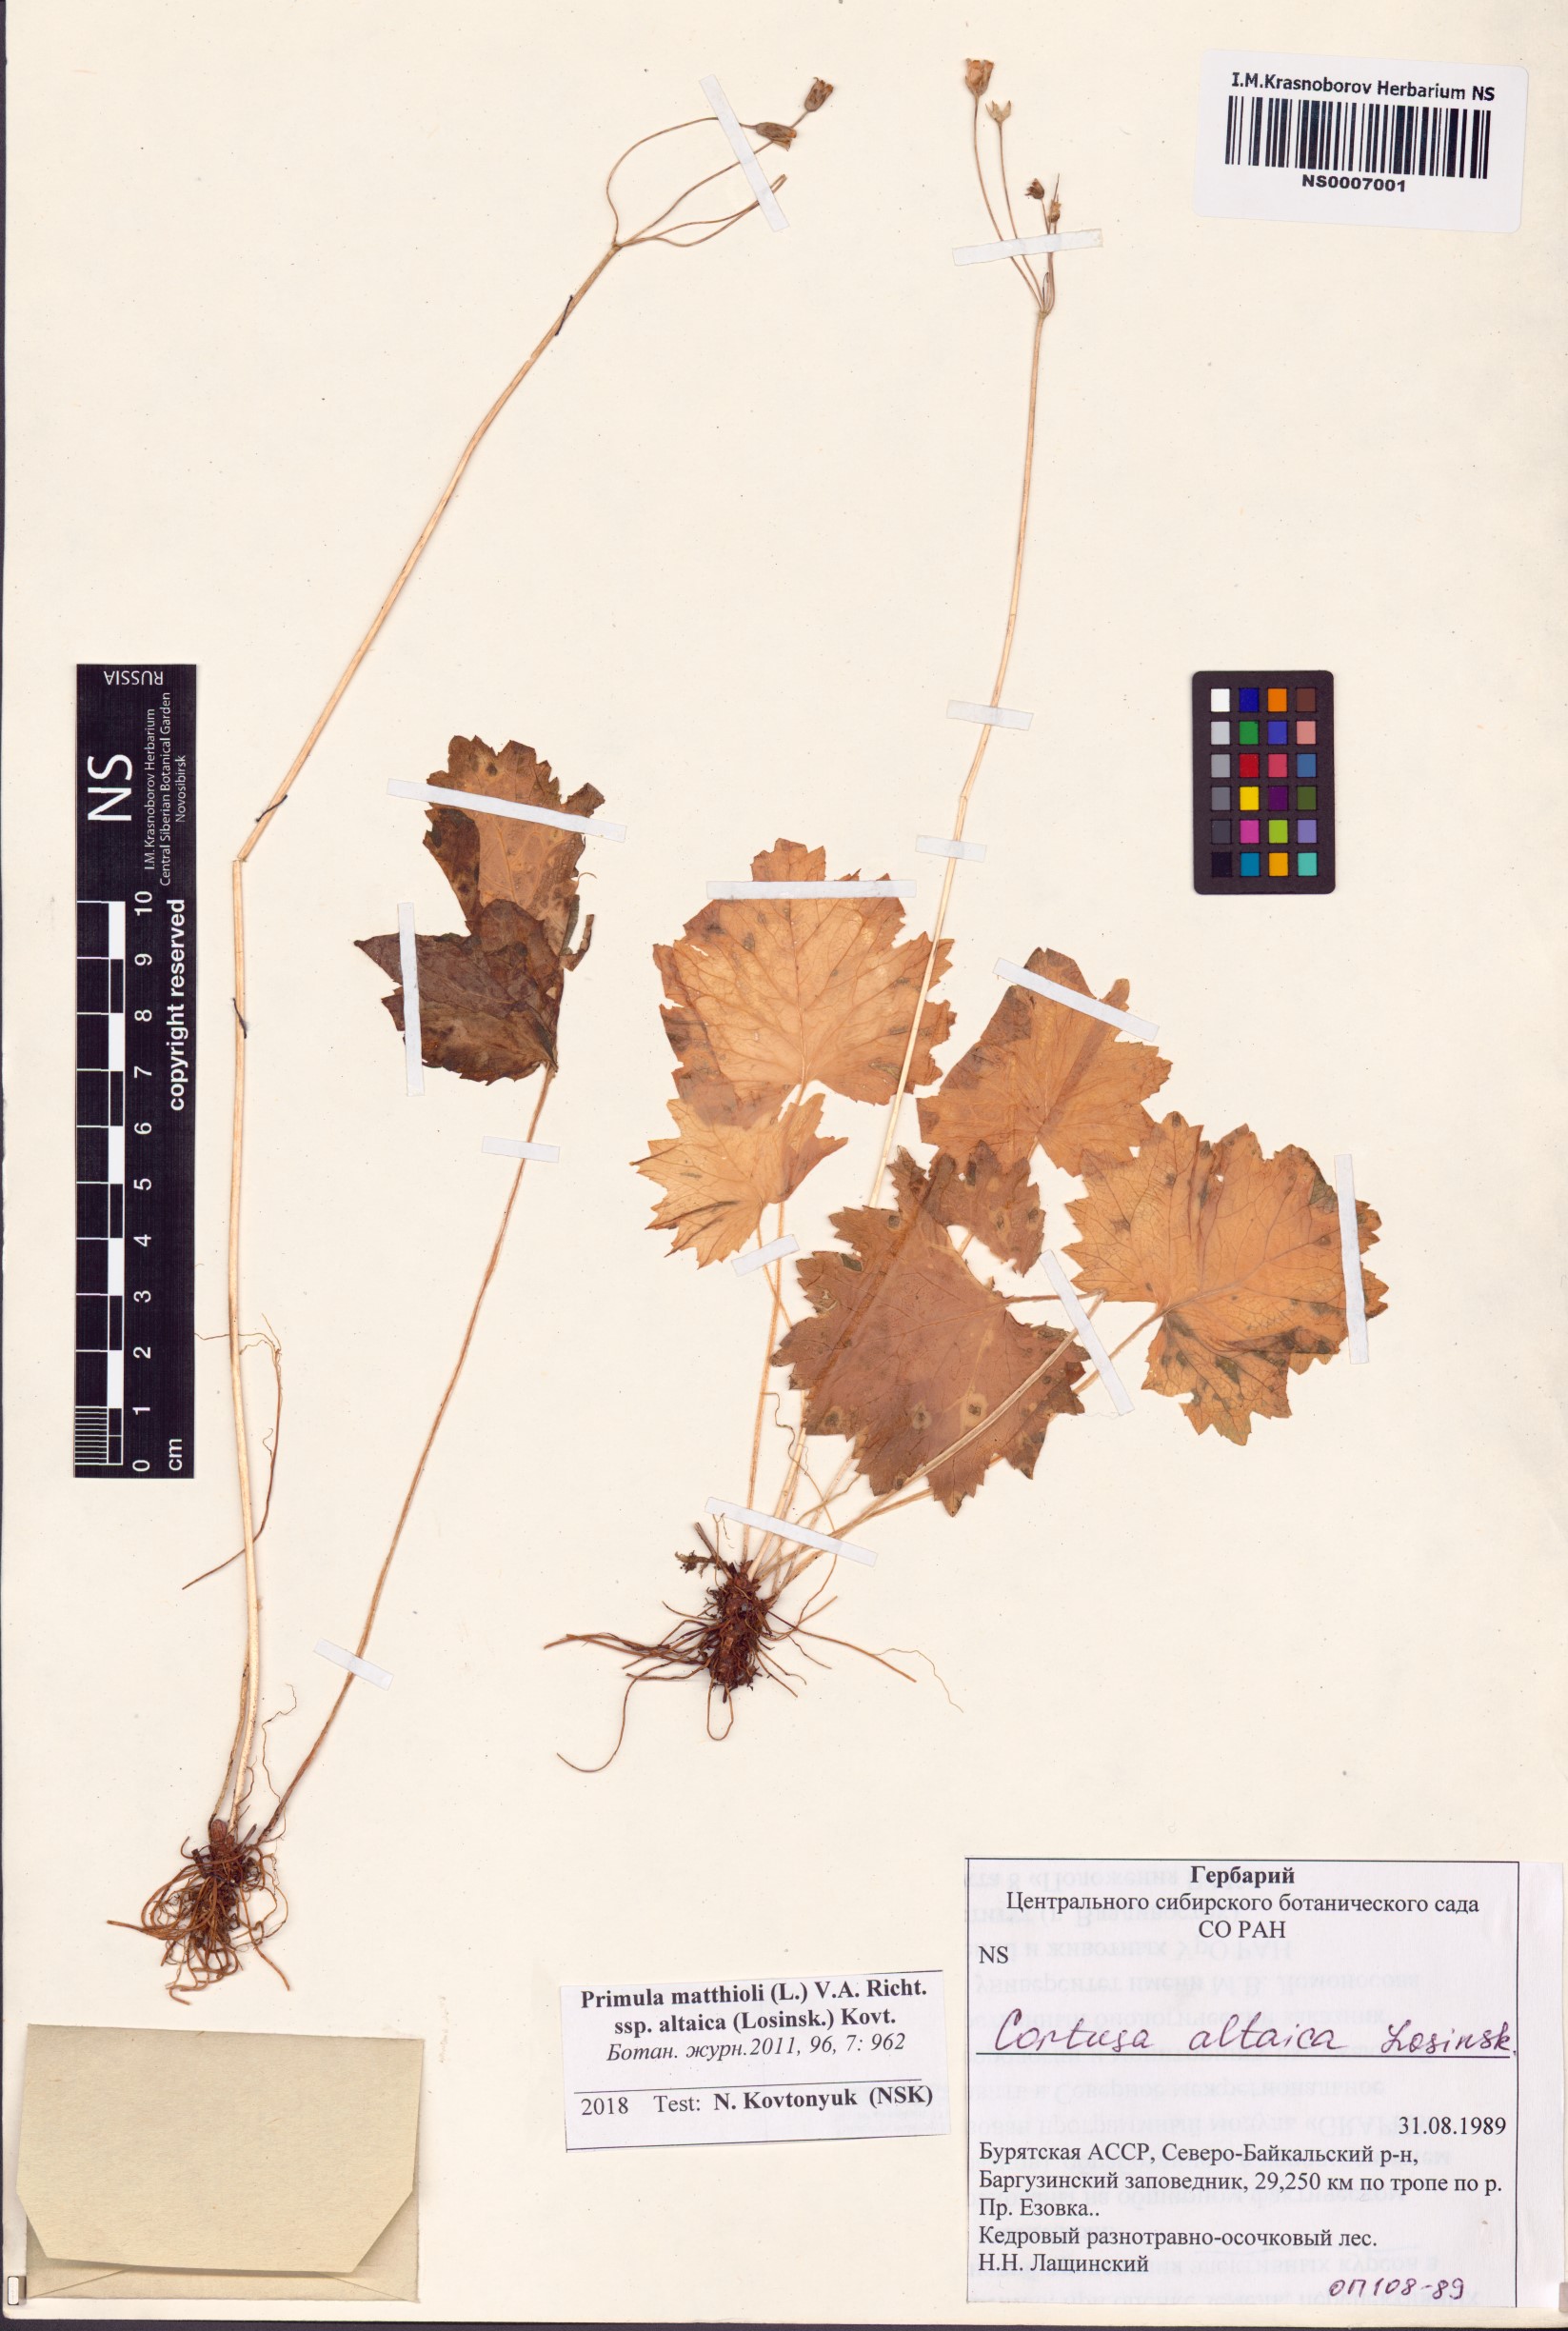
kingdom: Plantae
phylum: Tracheophyta
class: Magnoliopsida
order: Ericales
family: Primulaceae
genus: Primula
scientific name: Primula matthioli
